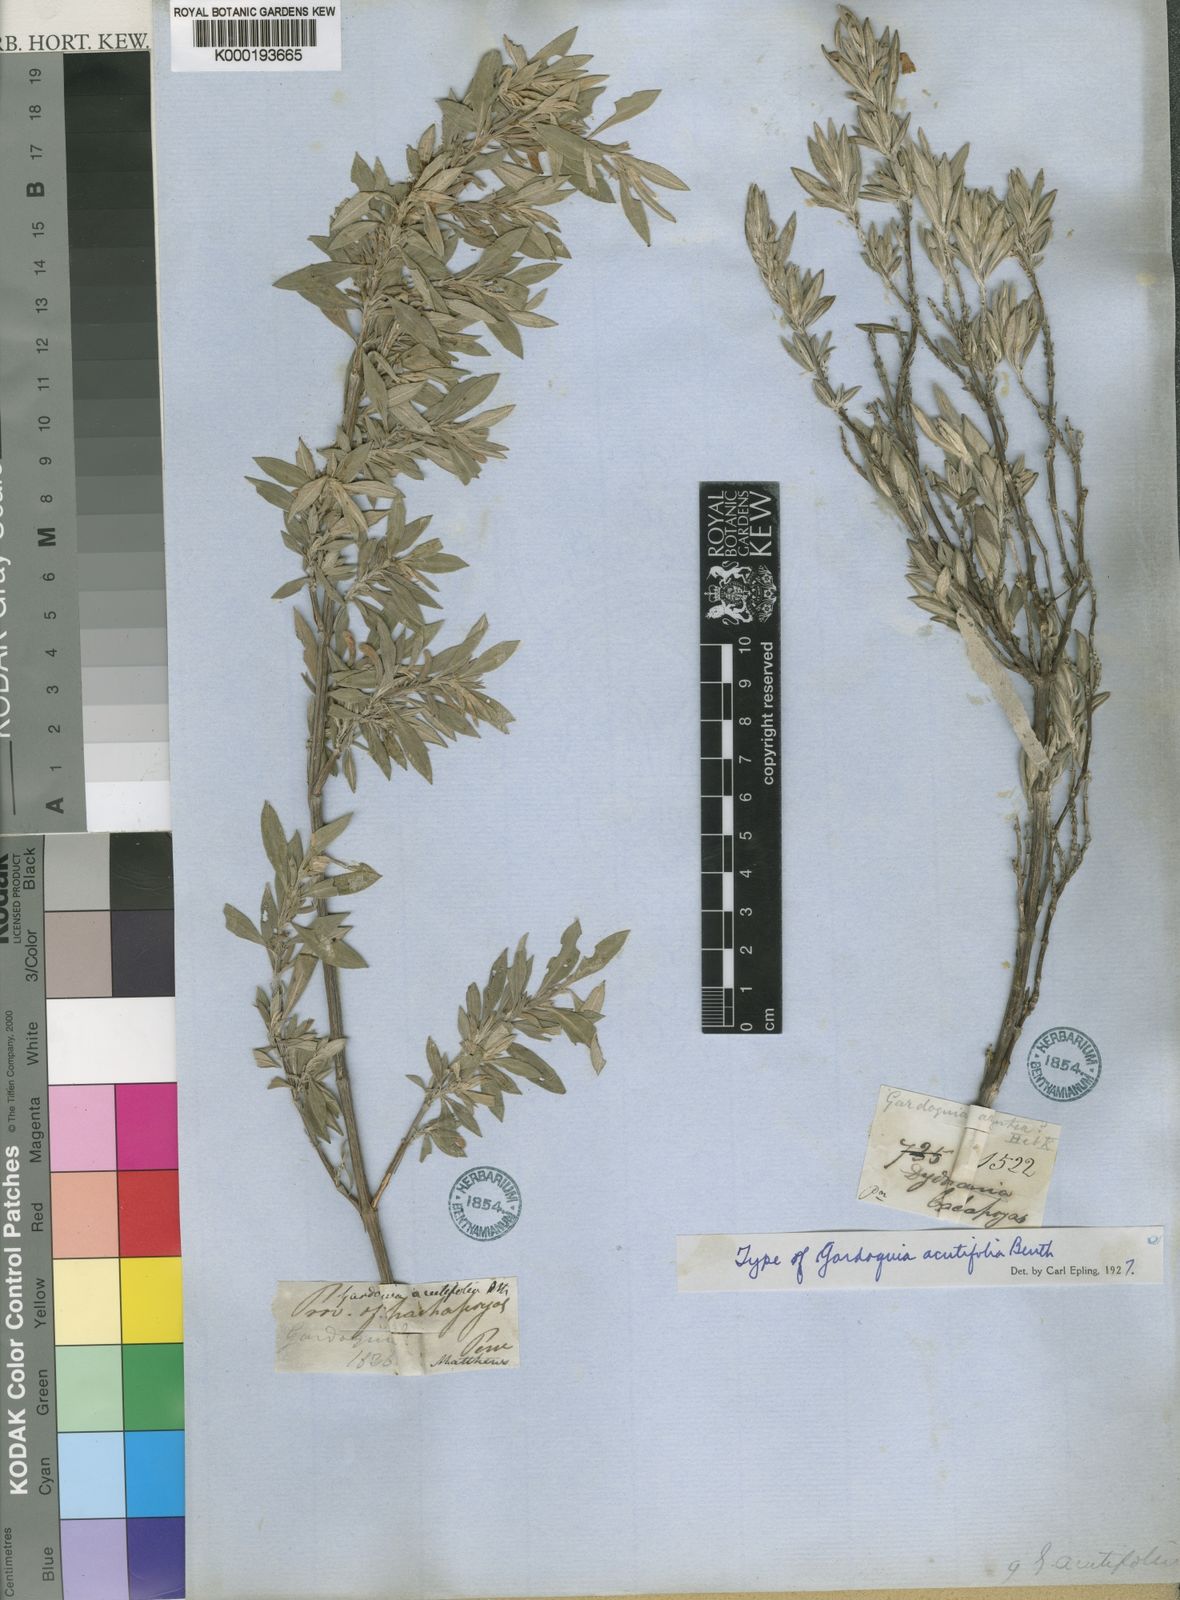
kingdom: Plantae
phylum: Tracheophyta
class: Magnoliopsida
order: Lamiales
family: Lamiaceae
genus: Clinopodium
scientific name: Clinopodium
